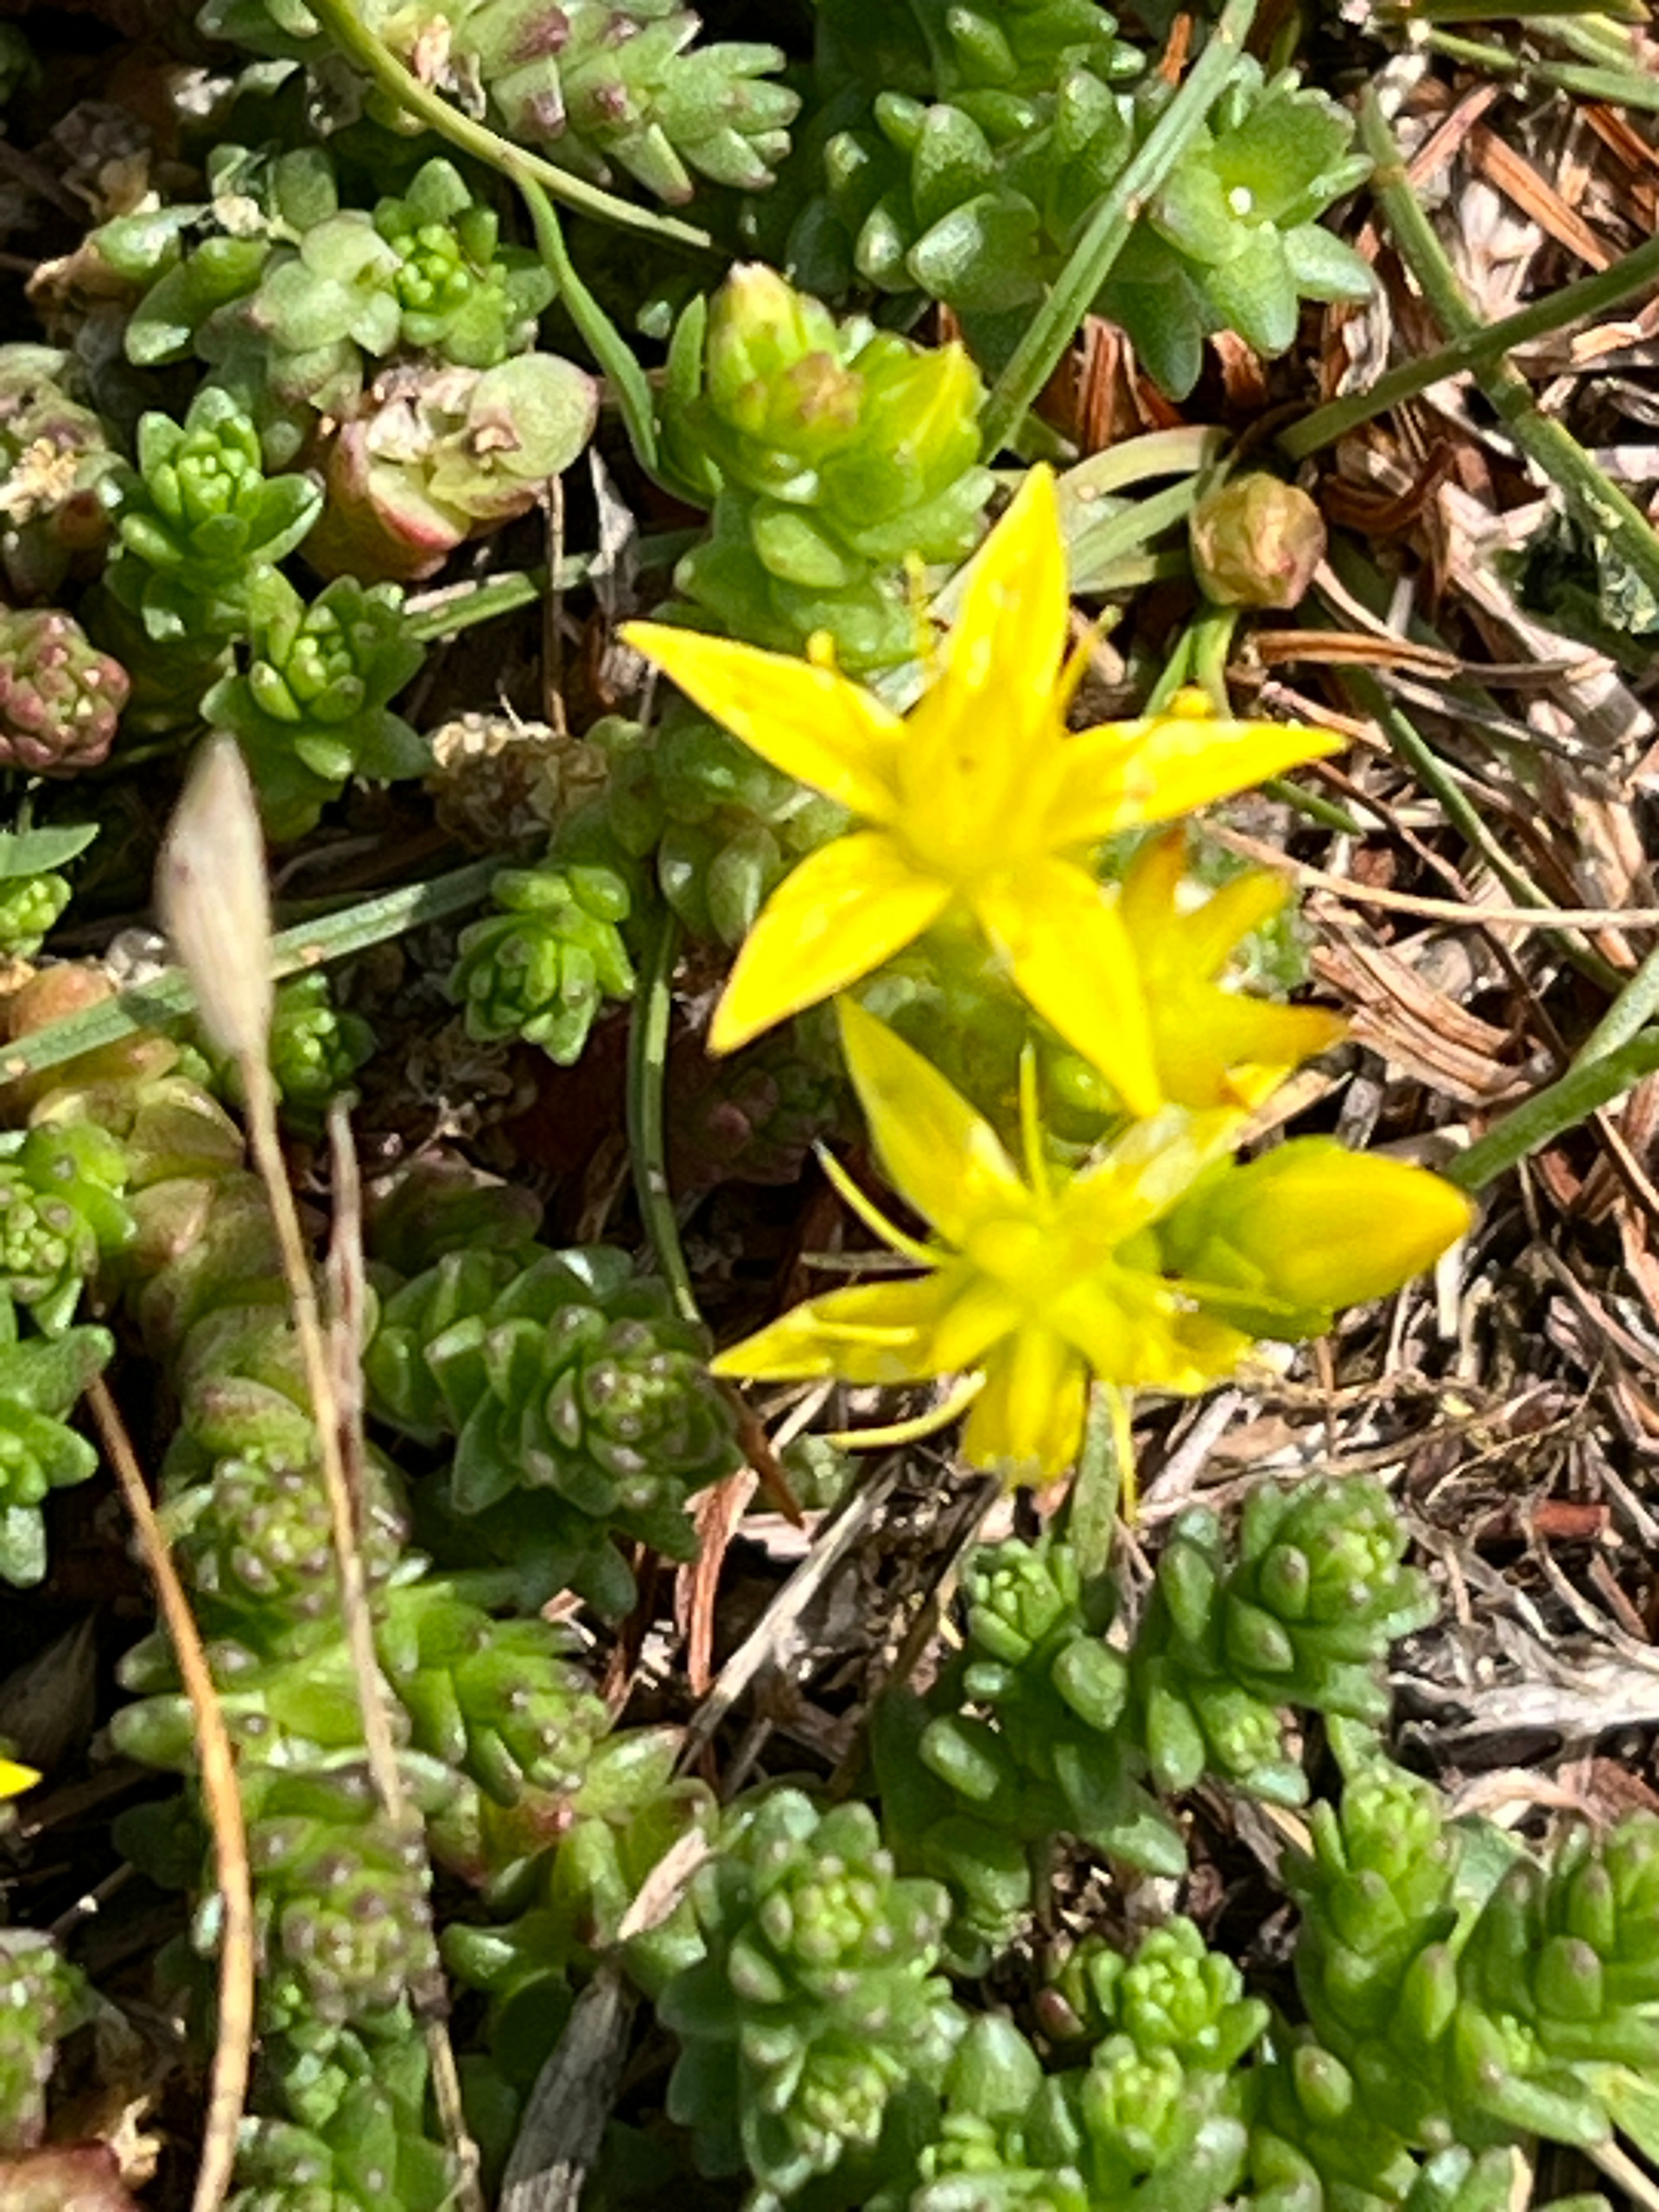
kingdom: Plantae
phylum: Tracheophyta
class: Magnoliopsida
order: Saxifragales
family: Crassulaceae
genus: Sedum
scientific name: Sedum acre
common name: Bidende stenurt
